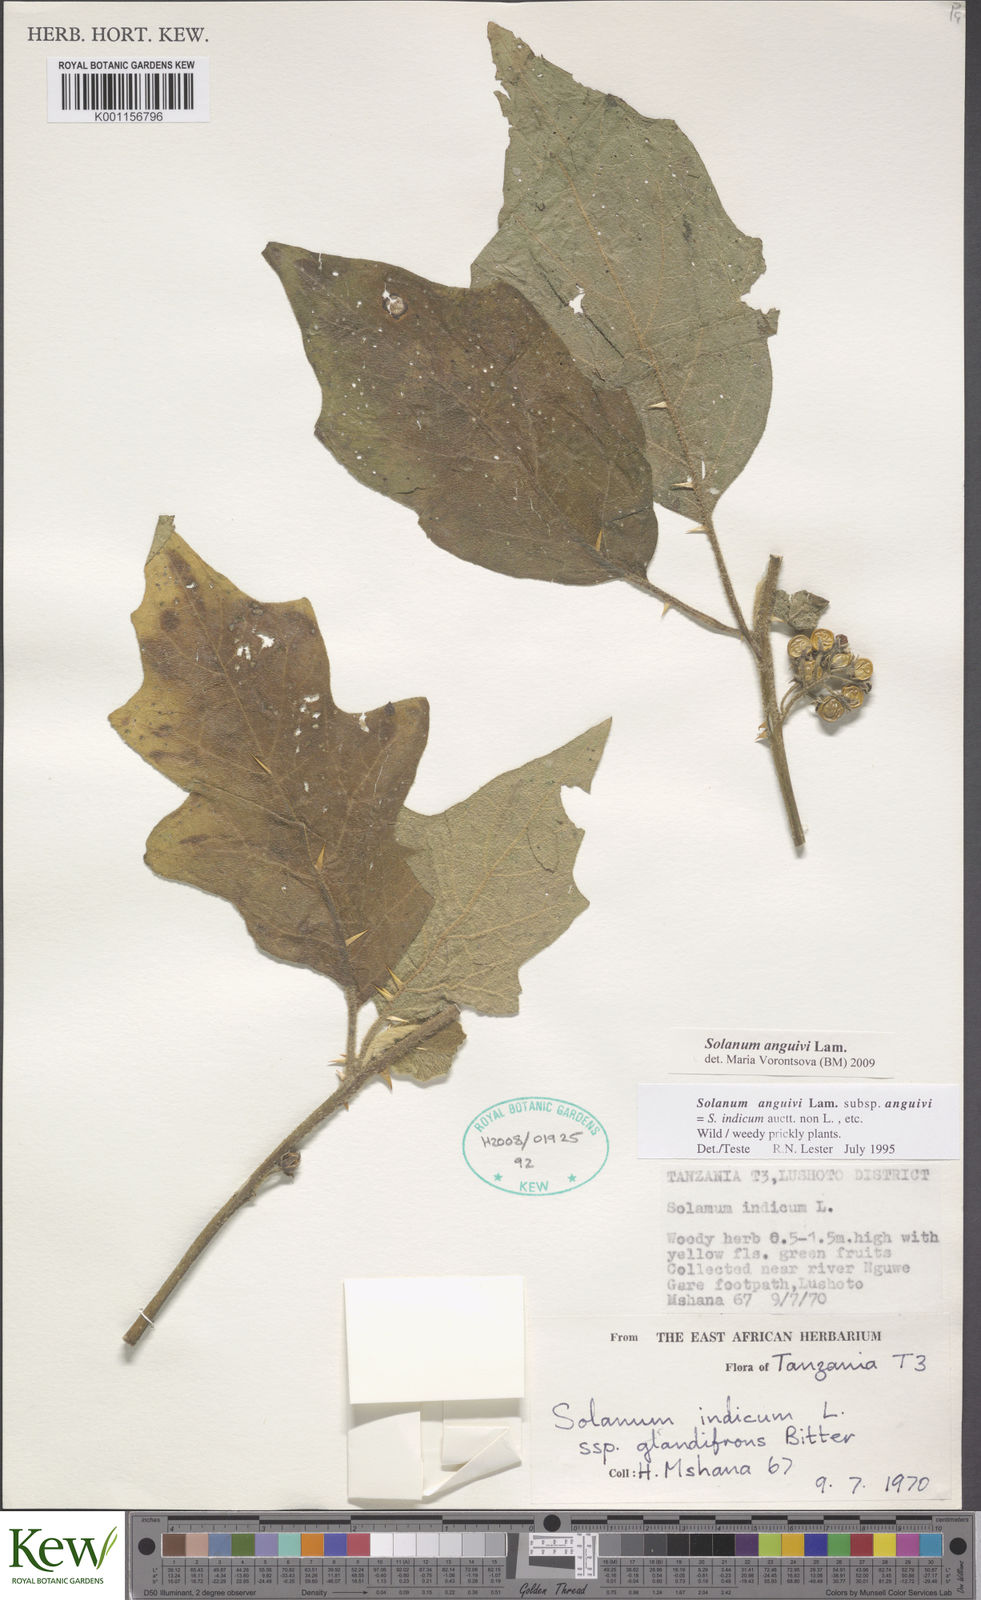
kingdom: Plantae
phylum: Tracheophyta
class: Magnoliopsida
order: Solanales
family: Solanaceae
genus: Solanum
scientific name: Solanum anguivi
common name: Forest bitterberry
